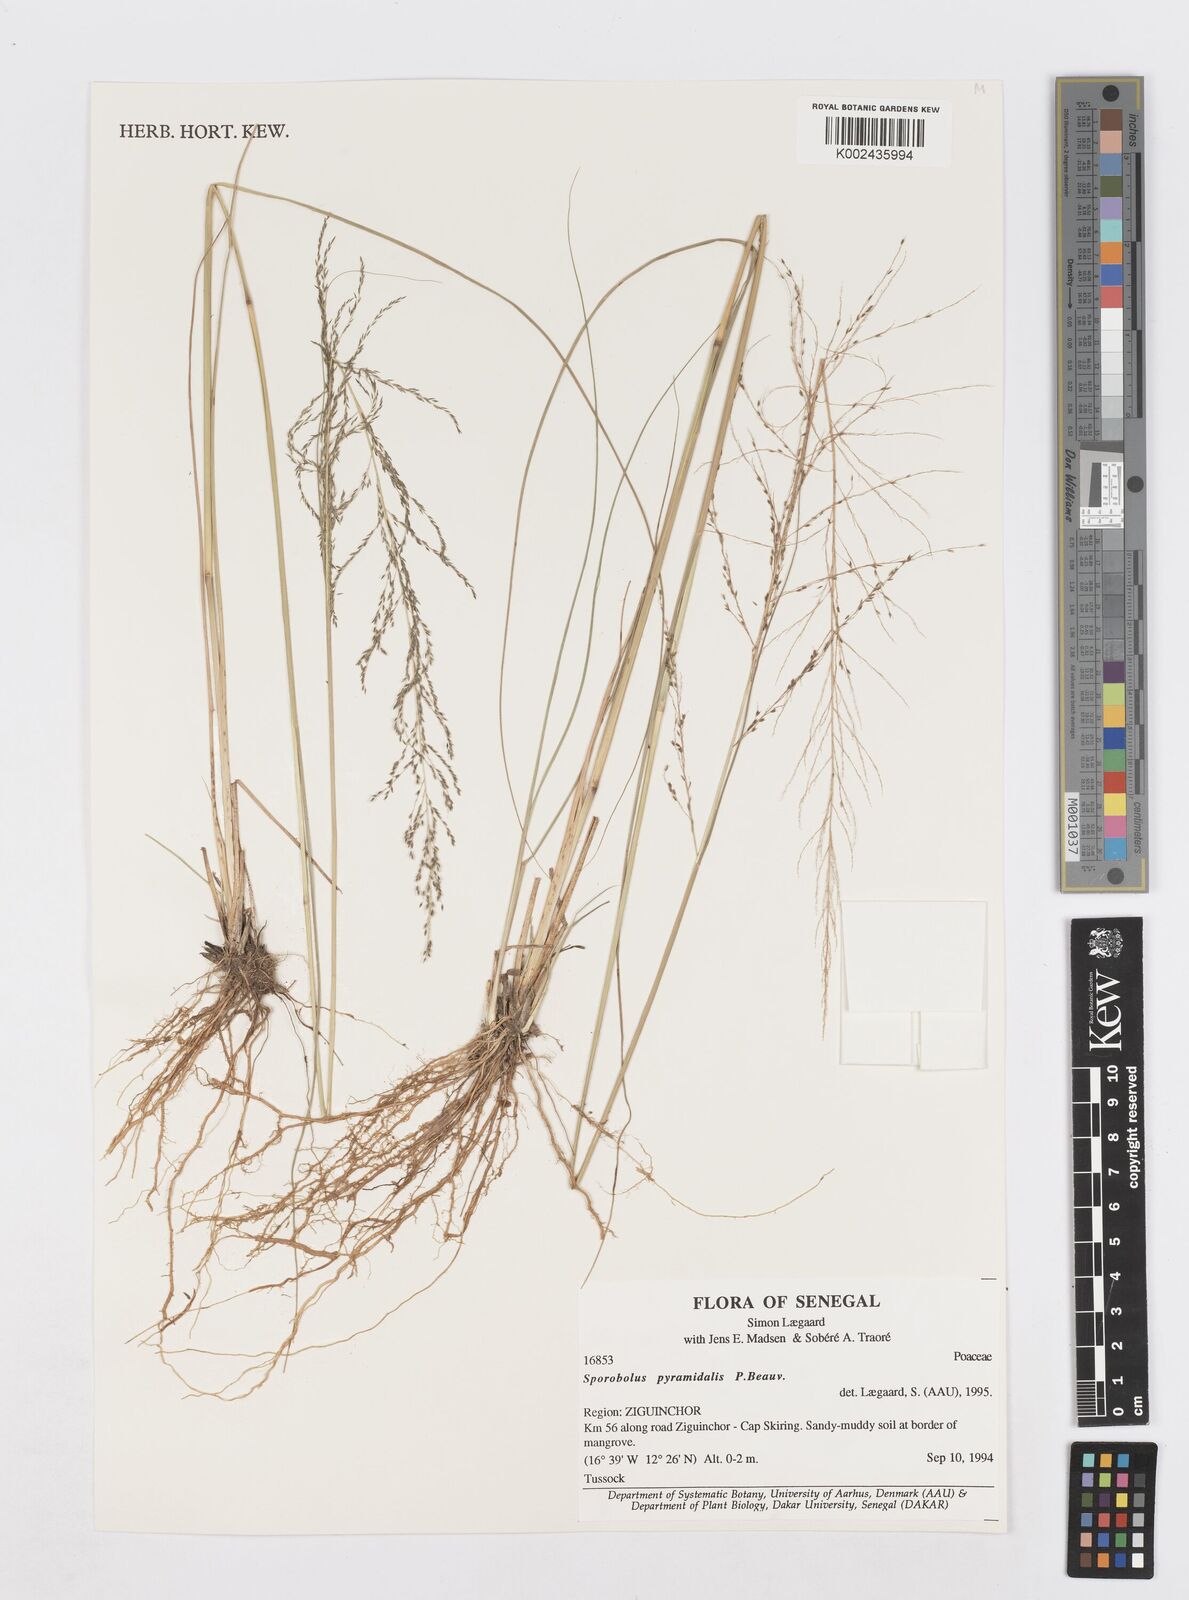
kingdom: Plantae
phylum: Tracheophyta
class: Liliopsida
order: Poales
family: Poaceae
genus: Sporobolus
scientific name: Sporobolus pyramidalis
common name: West indian dropseed
